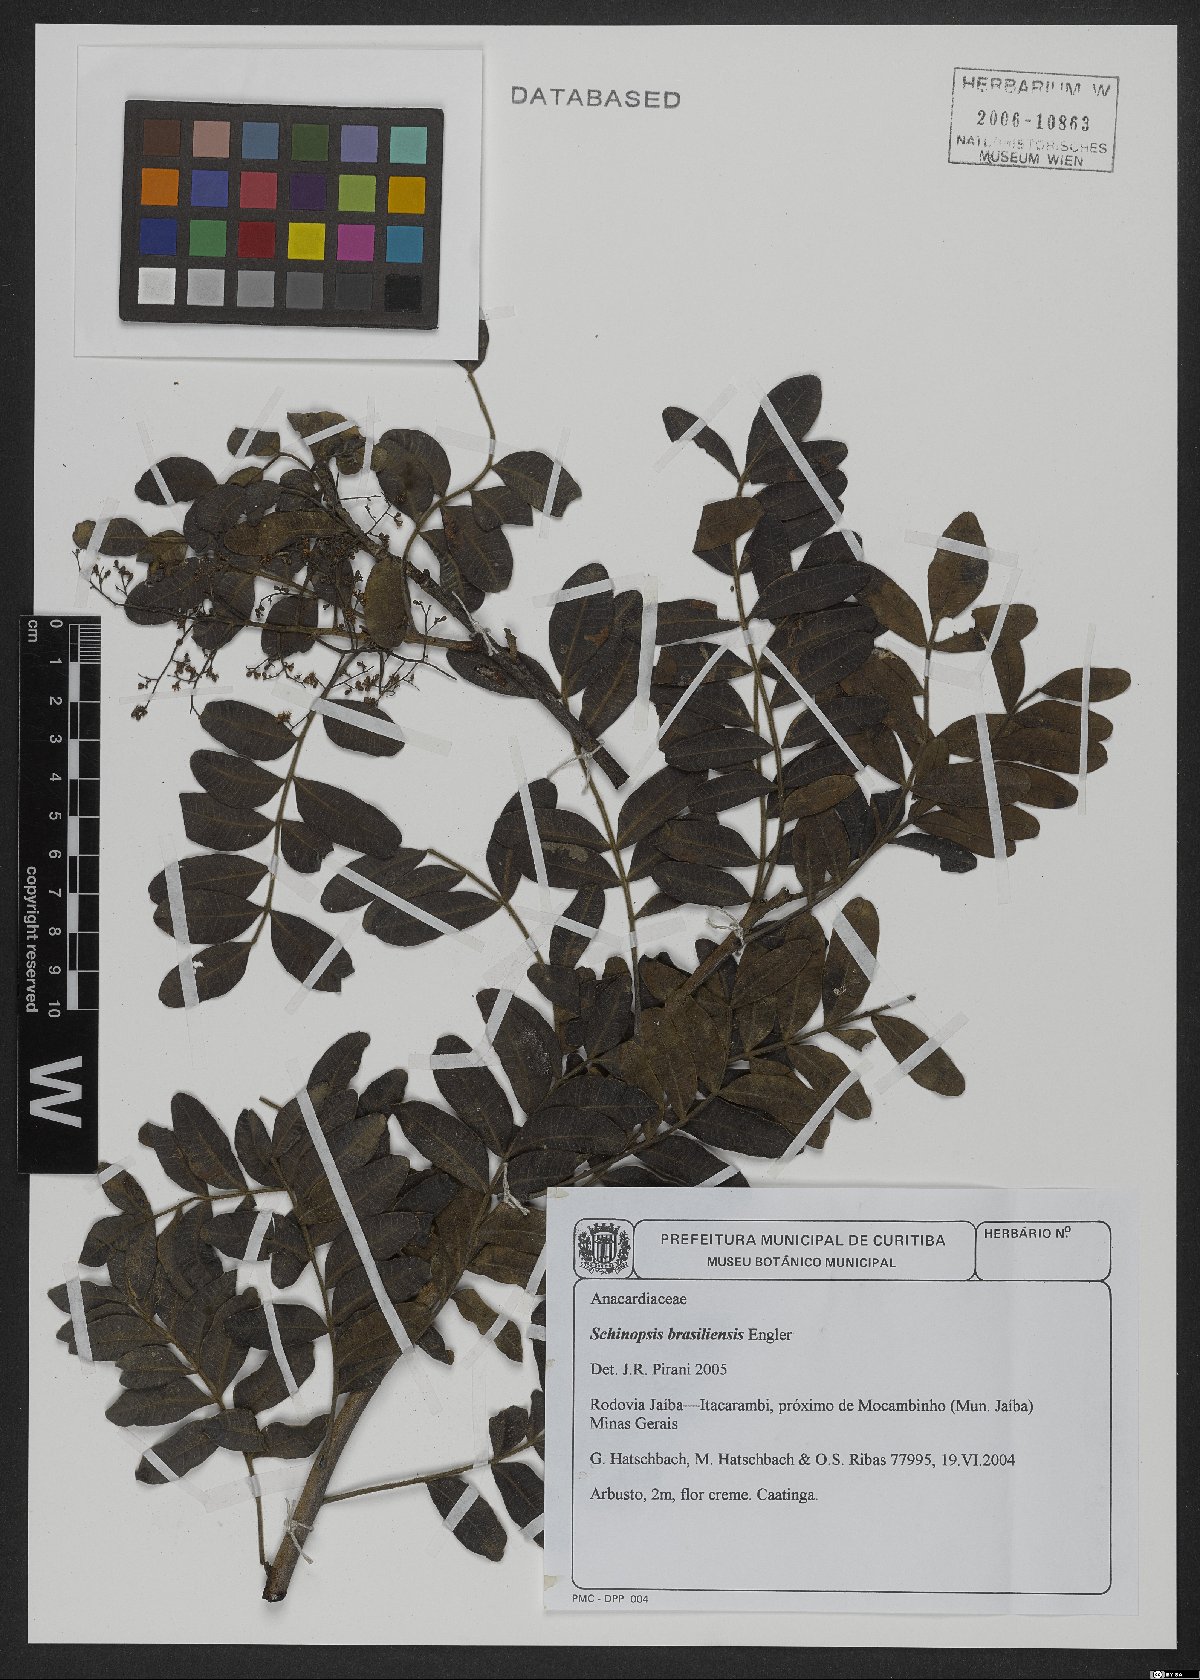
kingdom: Plantae
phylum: Tracheophyta
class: Magnoliopsida
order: Sapindales
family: Anacardiaceae
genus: Schinopsis
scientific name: Schinopsis brasiliensis
